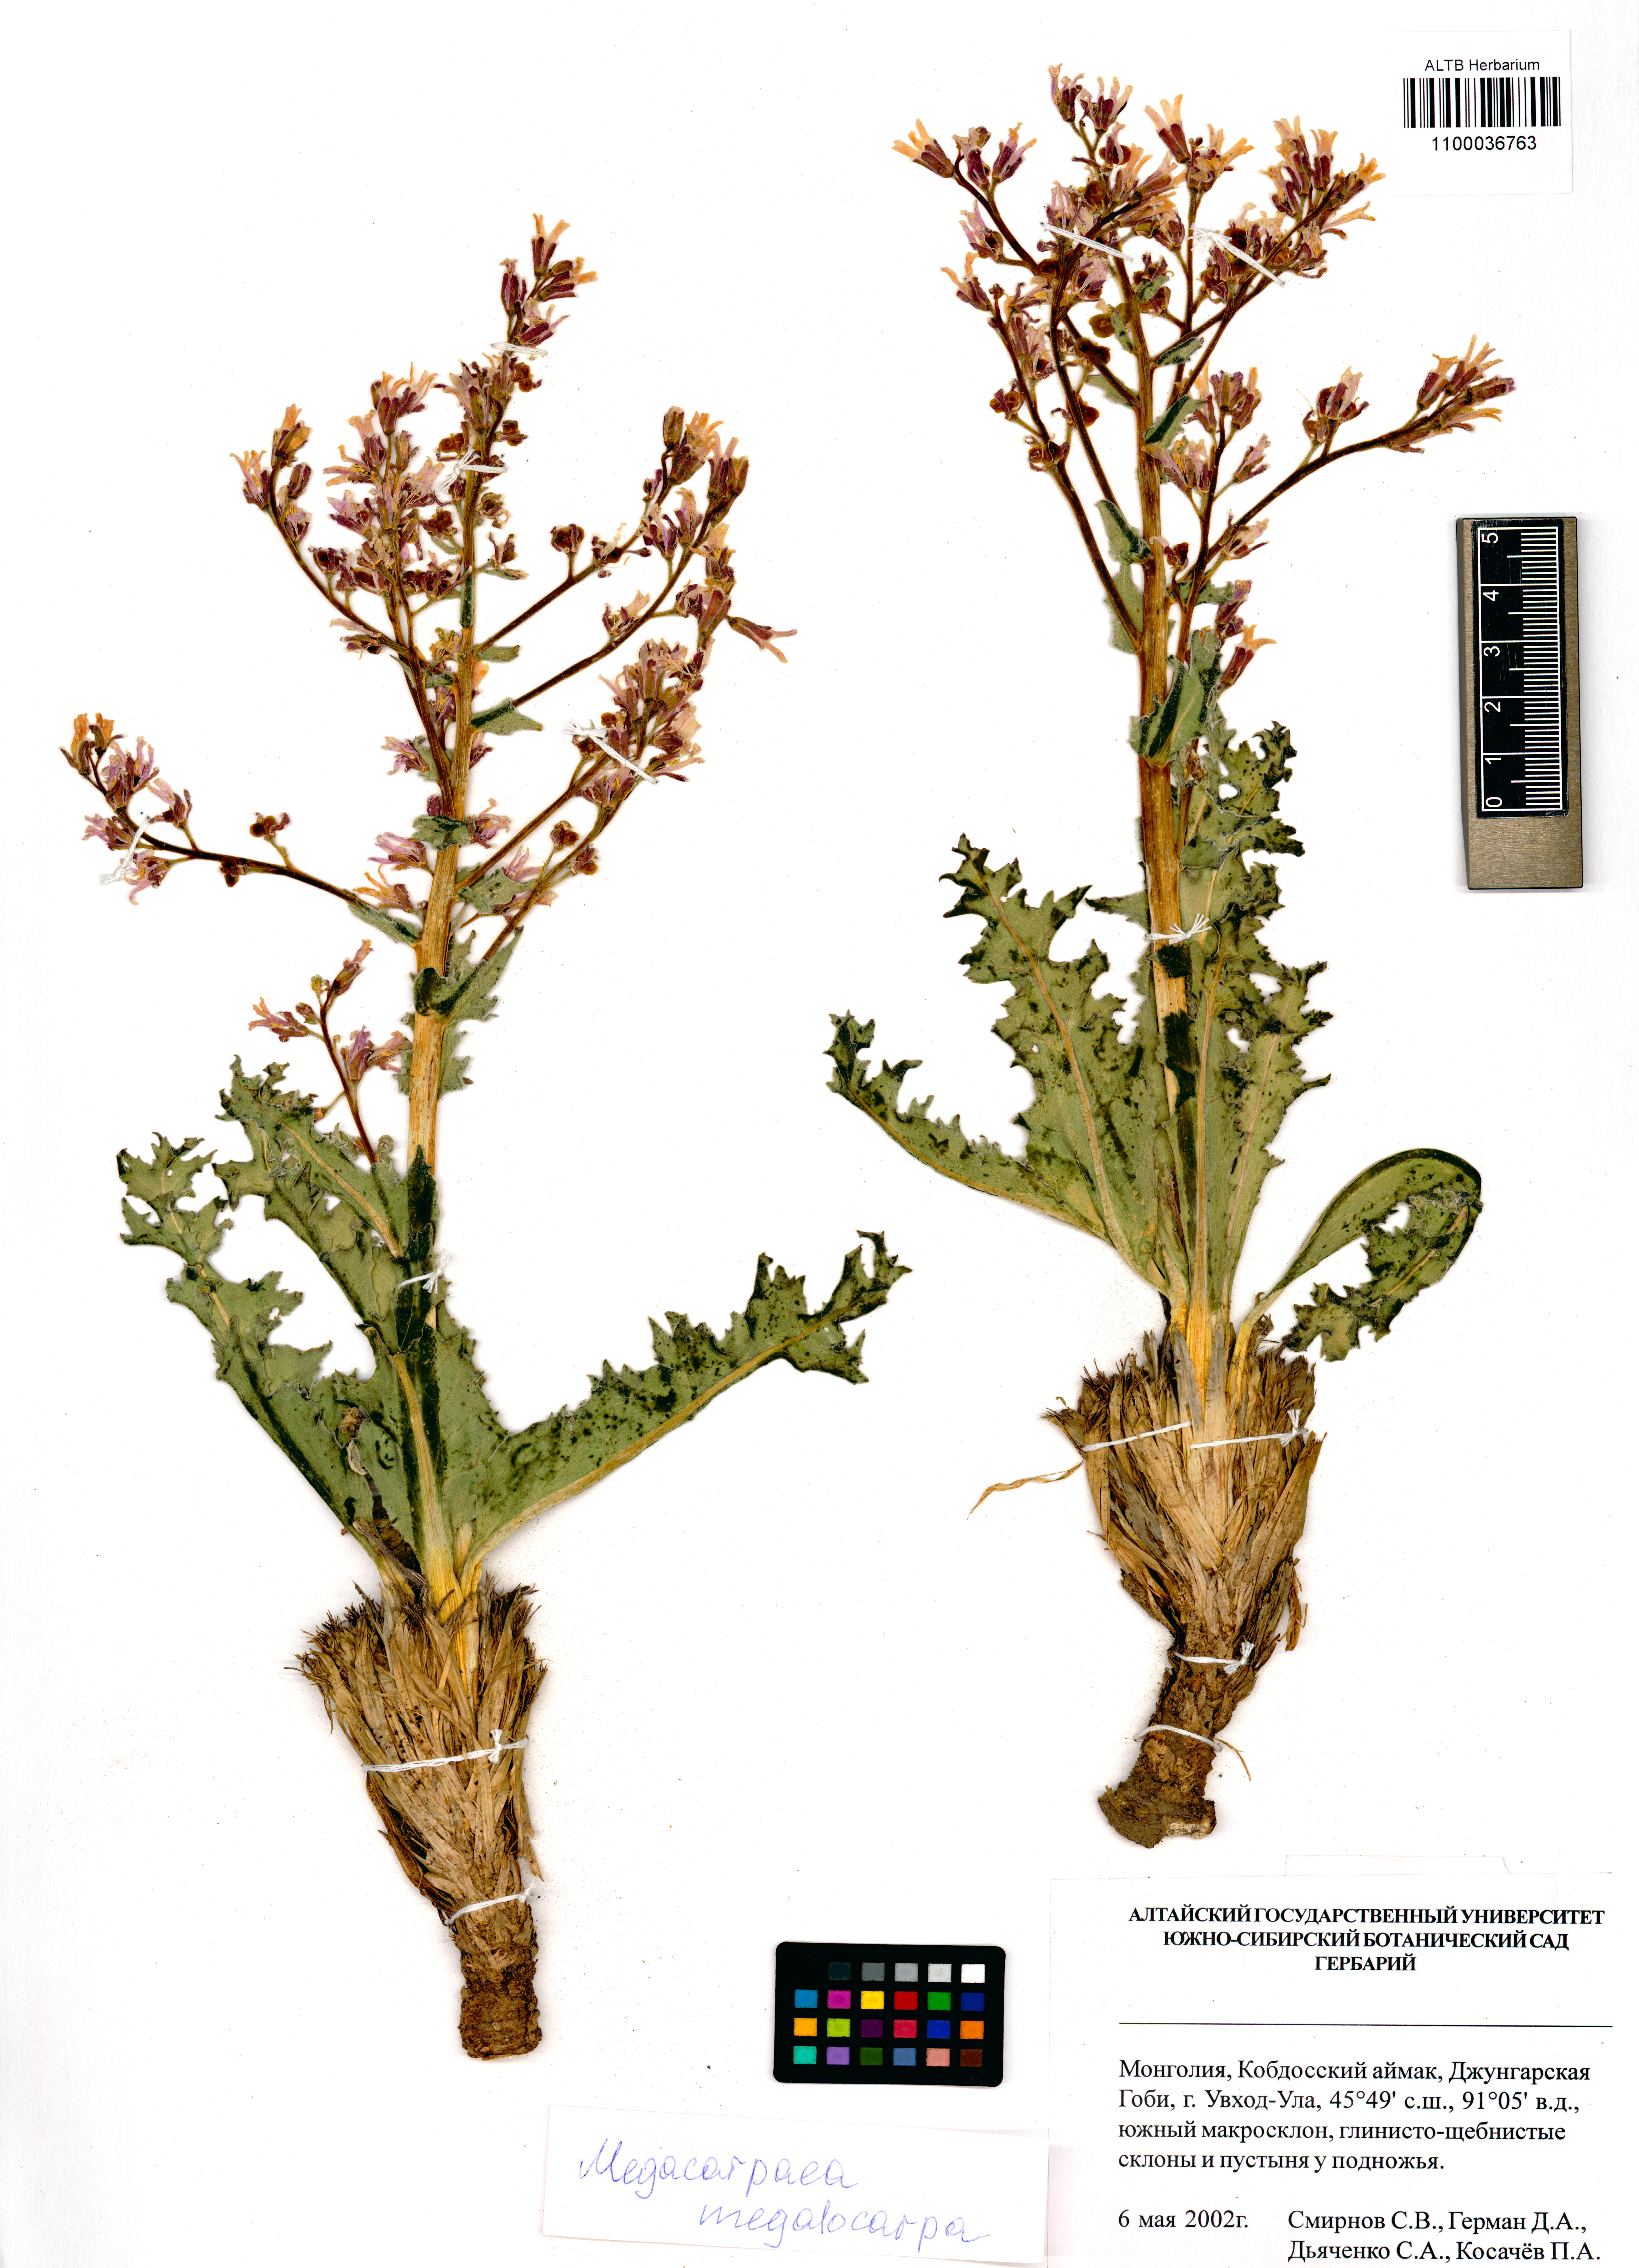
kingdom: Plantae
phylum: Tracheophyta
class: Magnoliopsida
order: Brassicales
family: Brassicaceae
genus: Megacarpaea
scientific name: Megacarpaea megalocarpa
